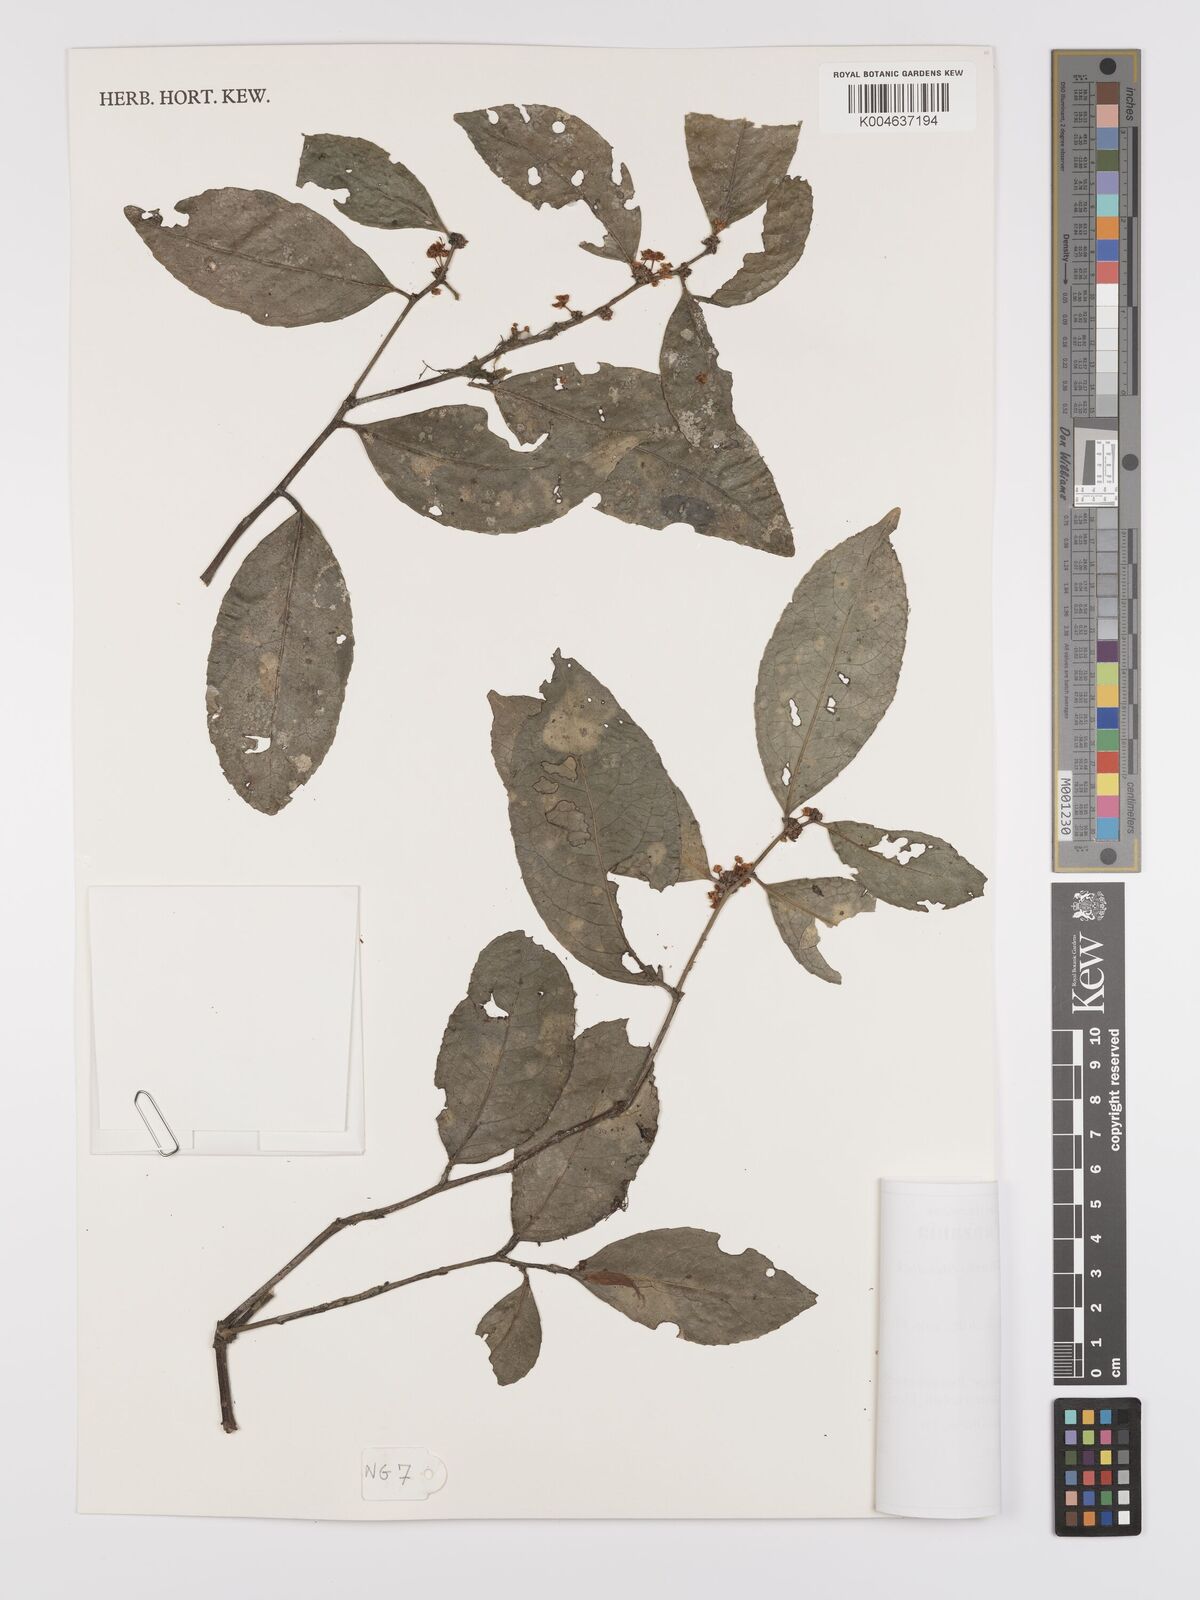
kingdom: Plantae
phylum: Tracheophyta
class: Magnoliopsida
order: Celastrales
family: Celastraceae
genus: Gymnosporia
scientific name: Gymnosporia undata
